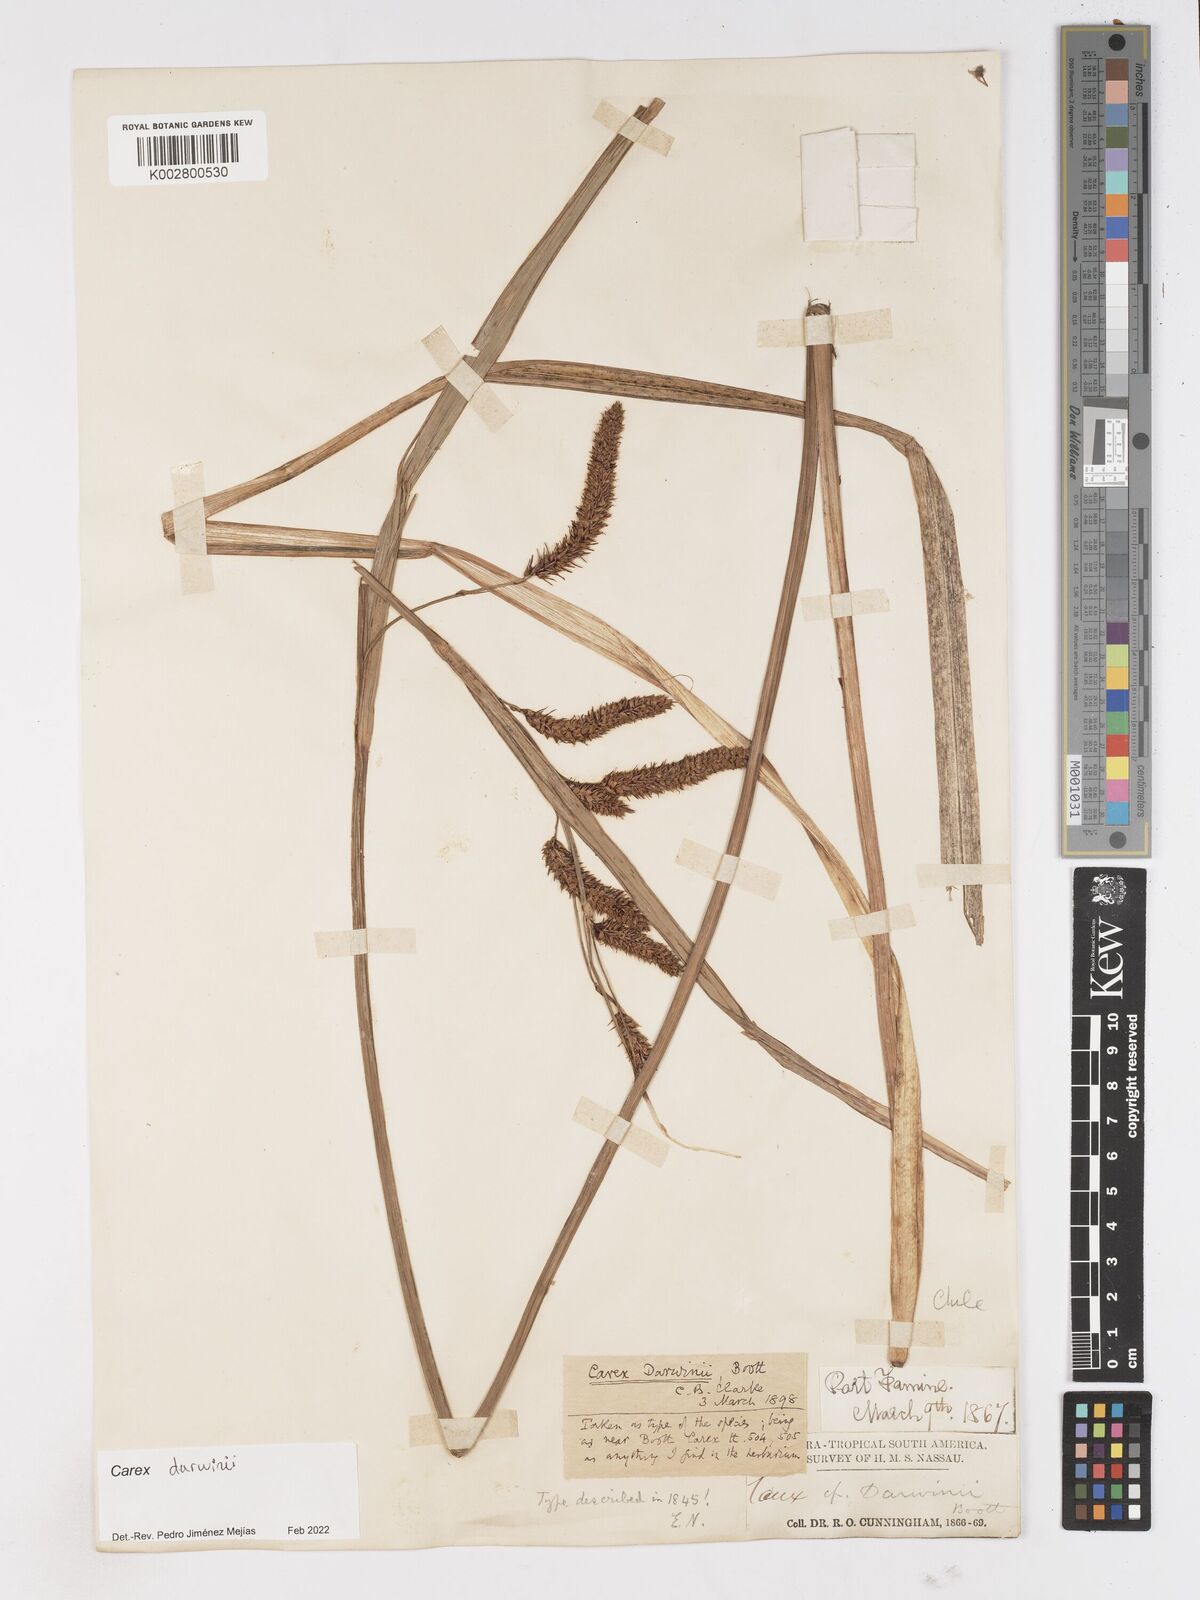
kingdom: Plantae
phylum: Tracheophyta
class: Liliopsida
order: Poales
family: Cyperaceae
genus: Carex
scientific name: Carex darwinii
